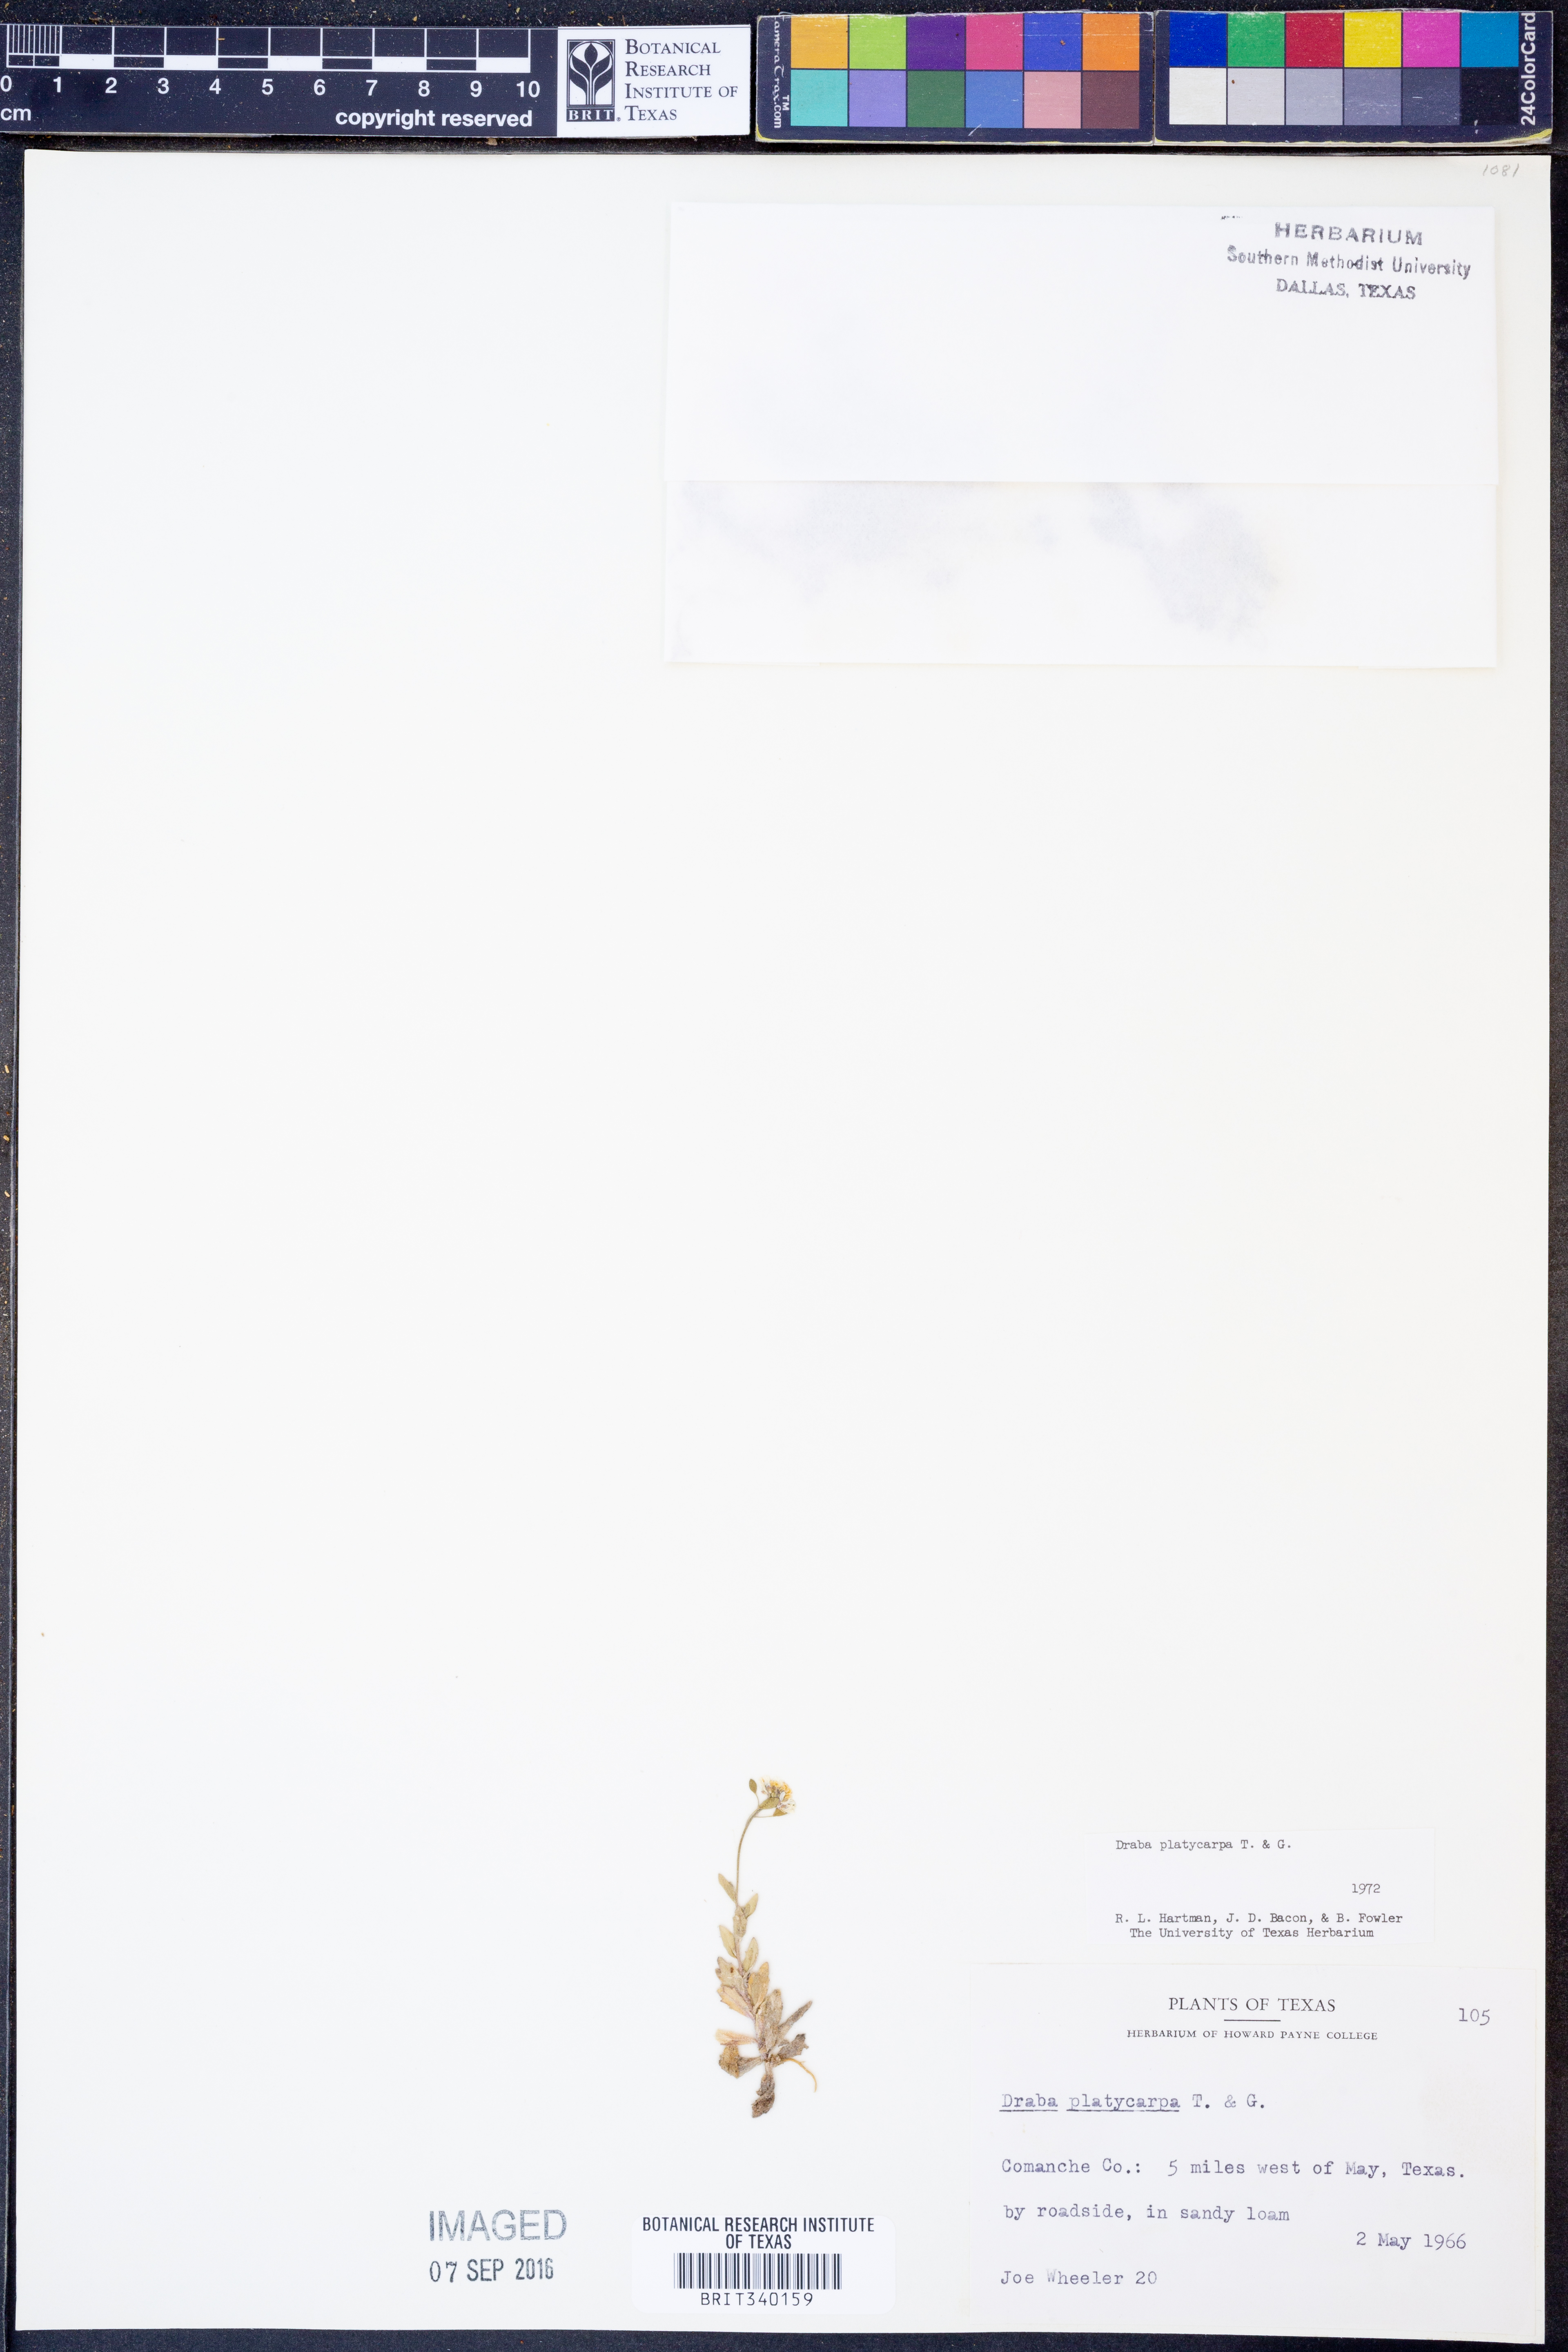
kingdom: Plantae
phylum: Tracheophyta
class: Magnoliopsida
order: Brassicales
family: Brassicaceae
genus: Tomostima
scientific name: Tomostima platycarpa
